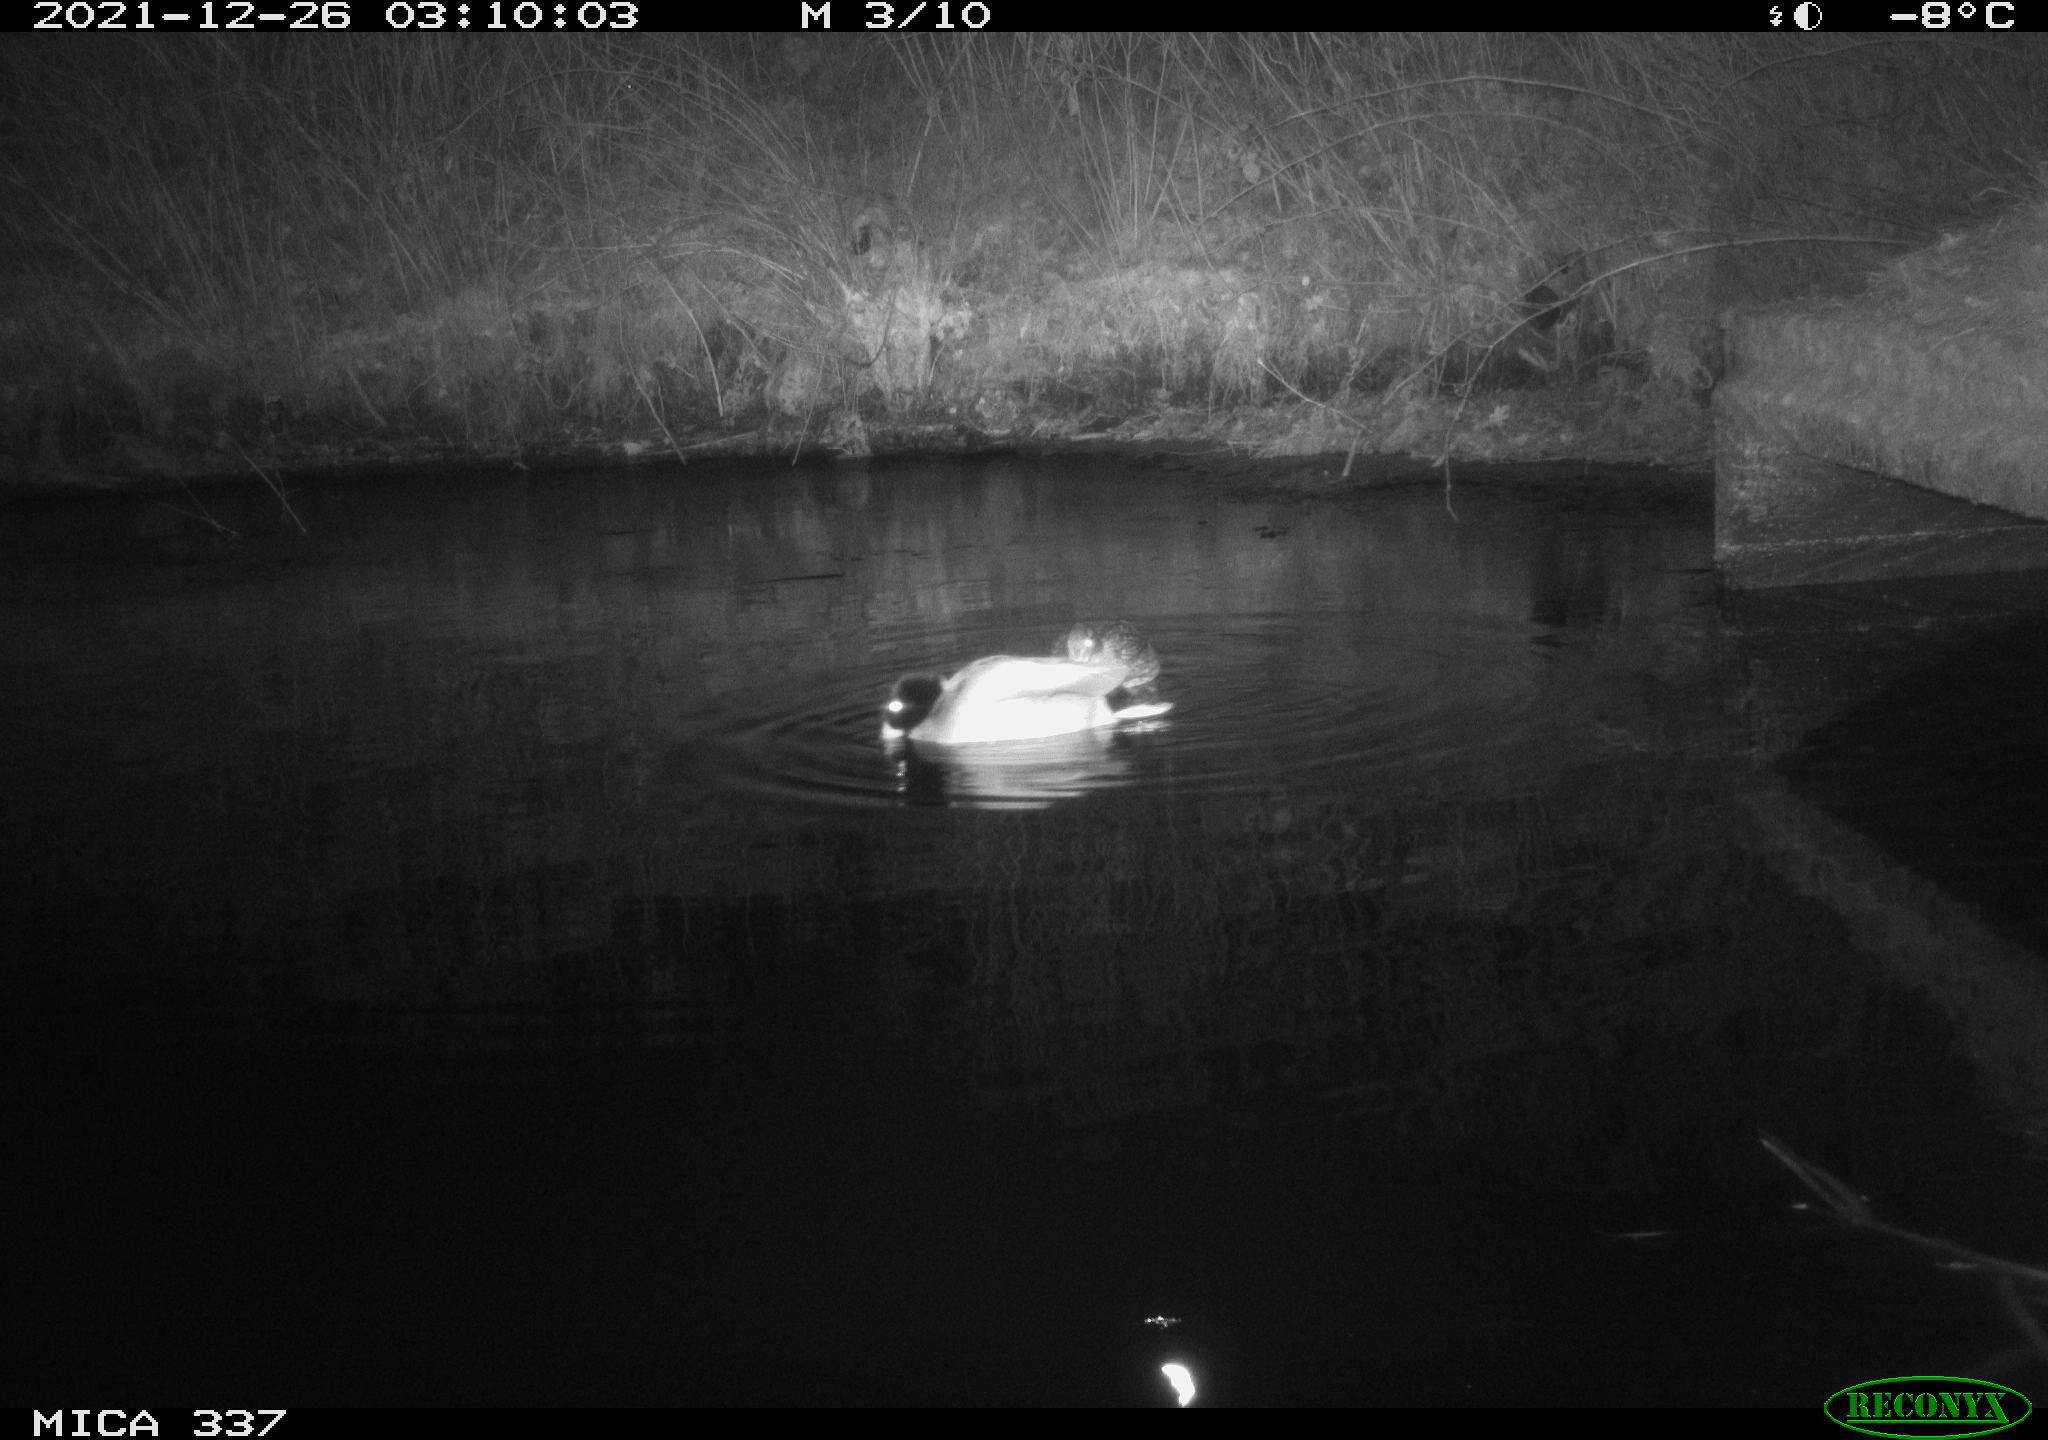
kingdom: Animalia
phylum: Chordata
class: Aves
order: Anseriformes
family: Anatidae
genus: Anas
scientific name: Anas platyrhynchos
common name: Mallard
